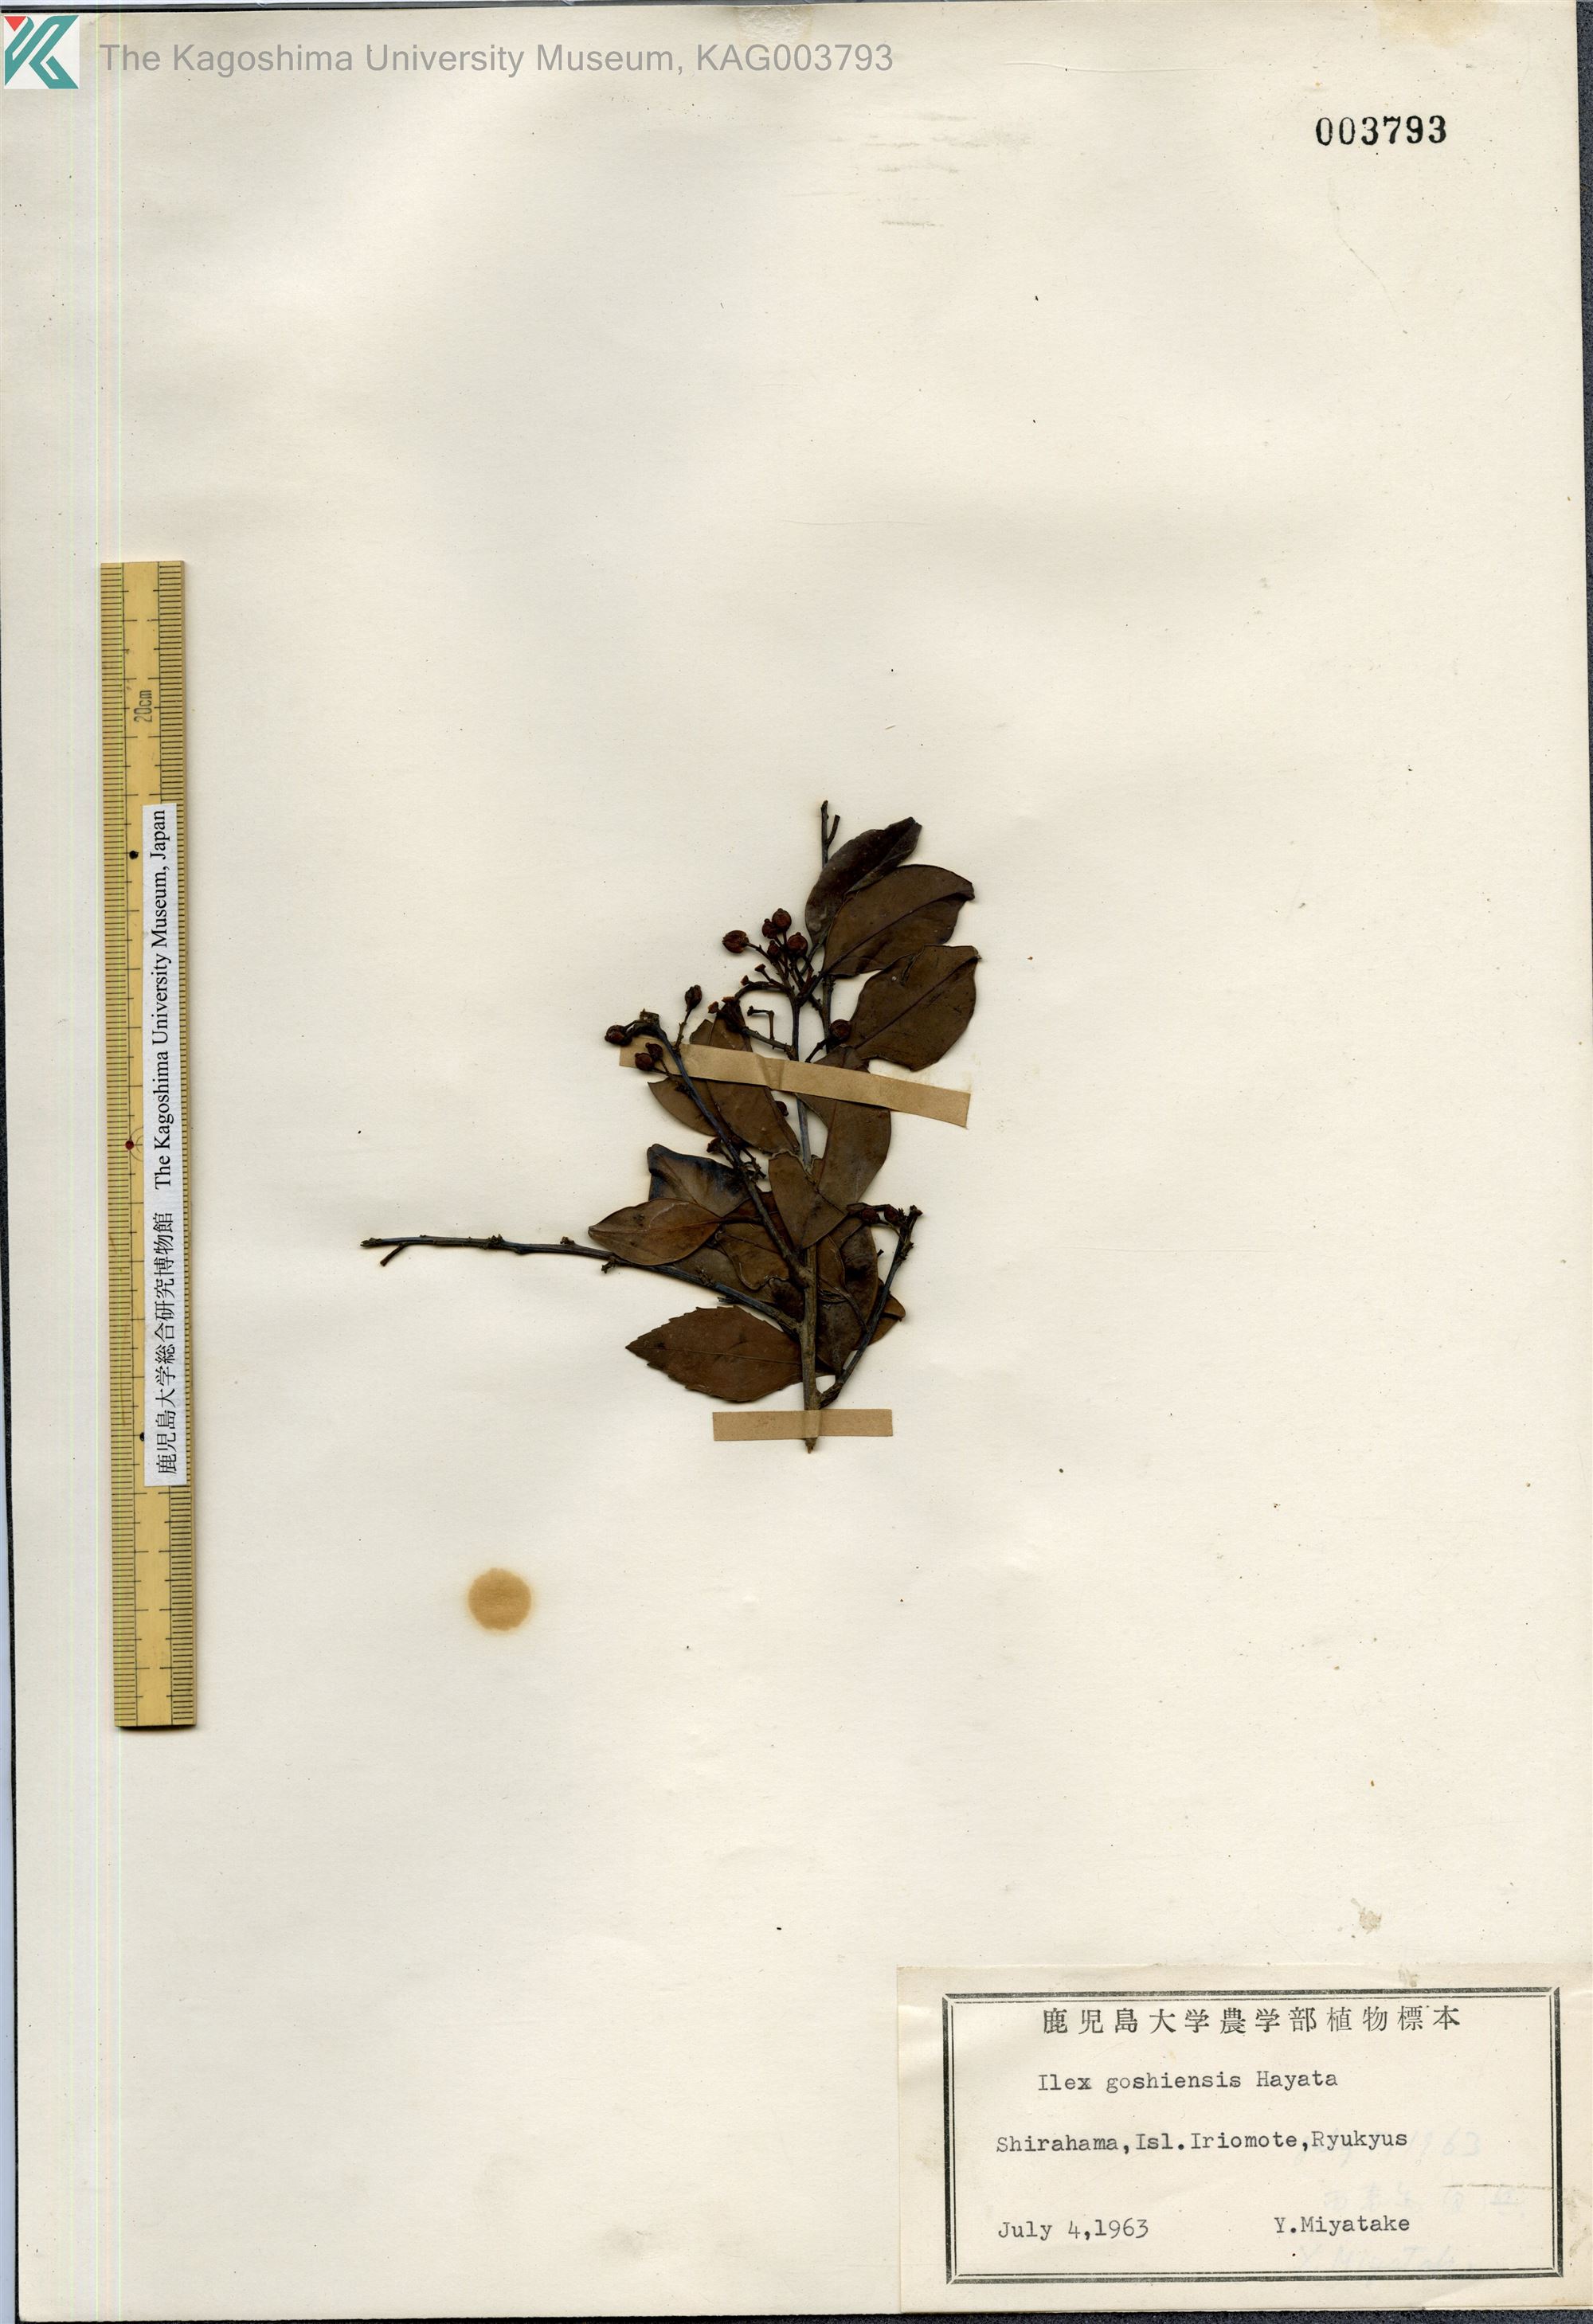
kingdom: Plantae
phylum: Tracheophyta
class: Magnoliopsida
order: Aquifoliales
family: Aquifoliaceae
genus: Ilex
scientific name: Ilex goshiensis
